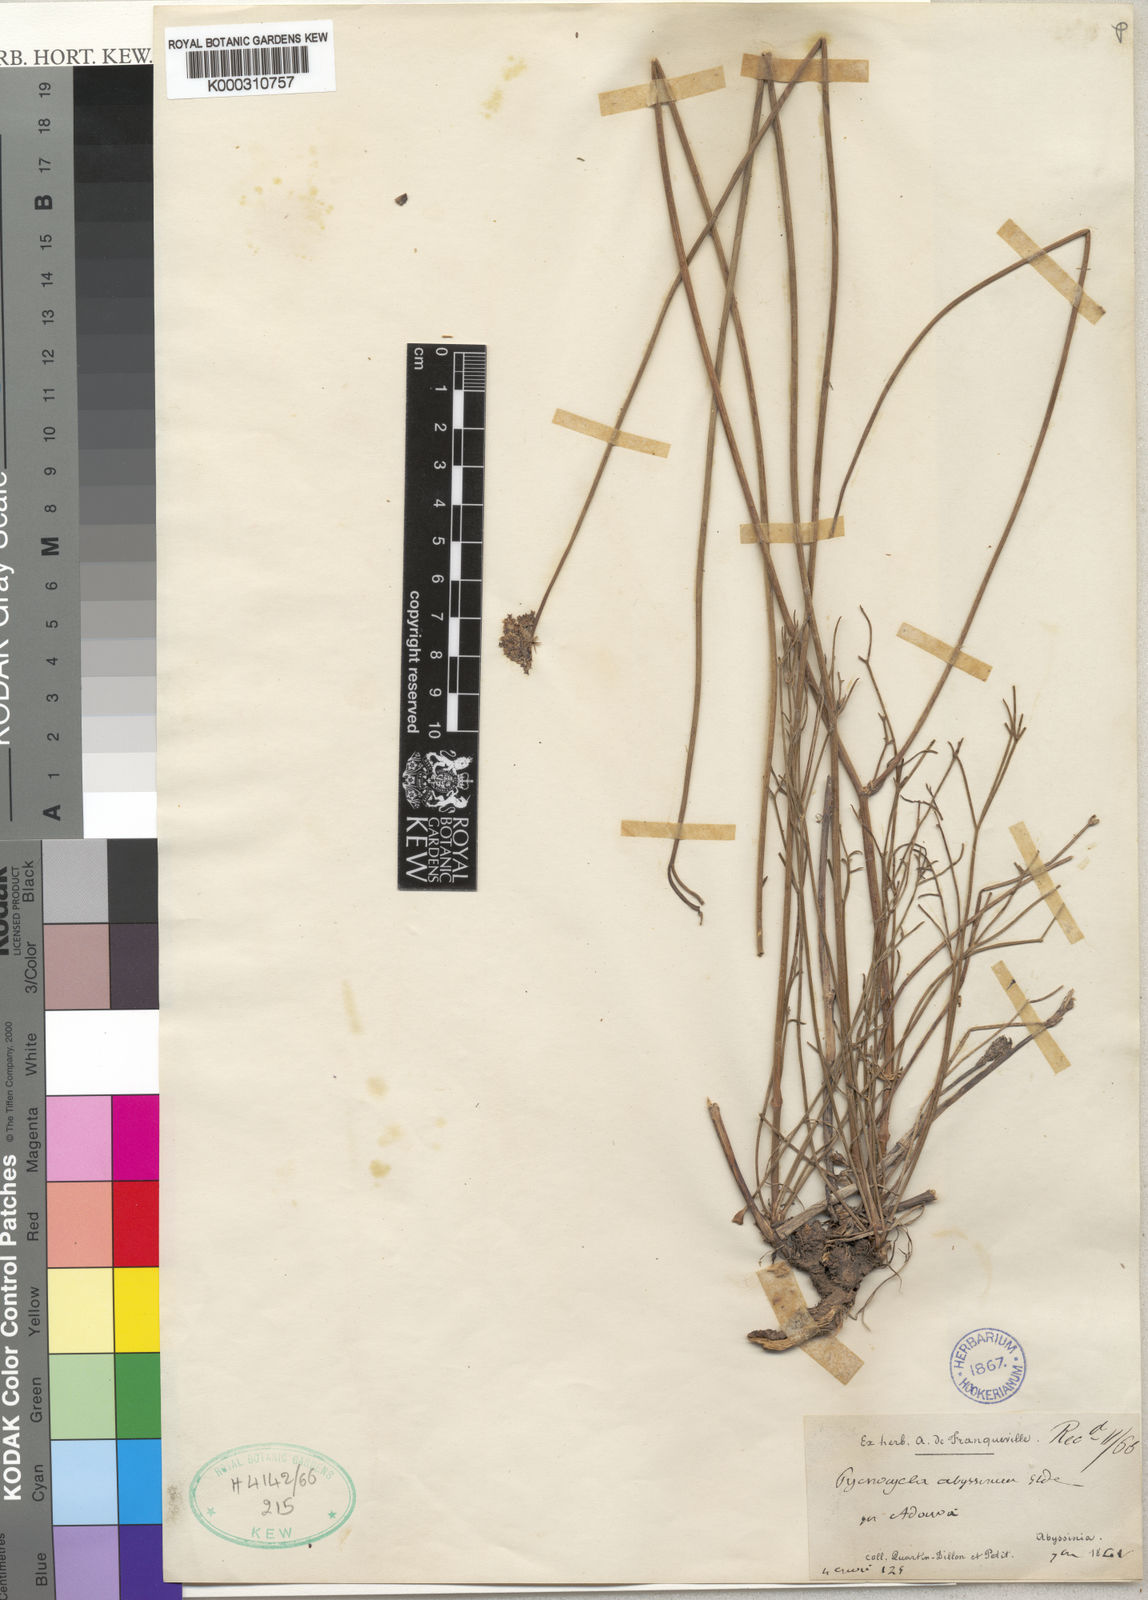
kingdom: Plantae
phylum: Tracheophyta
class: Magnoliopsida
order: Apiales
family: Apiaceae
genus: Pycnocycla
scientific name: Pycnocycla glauca
